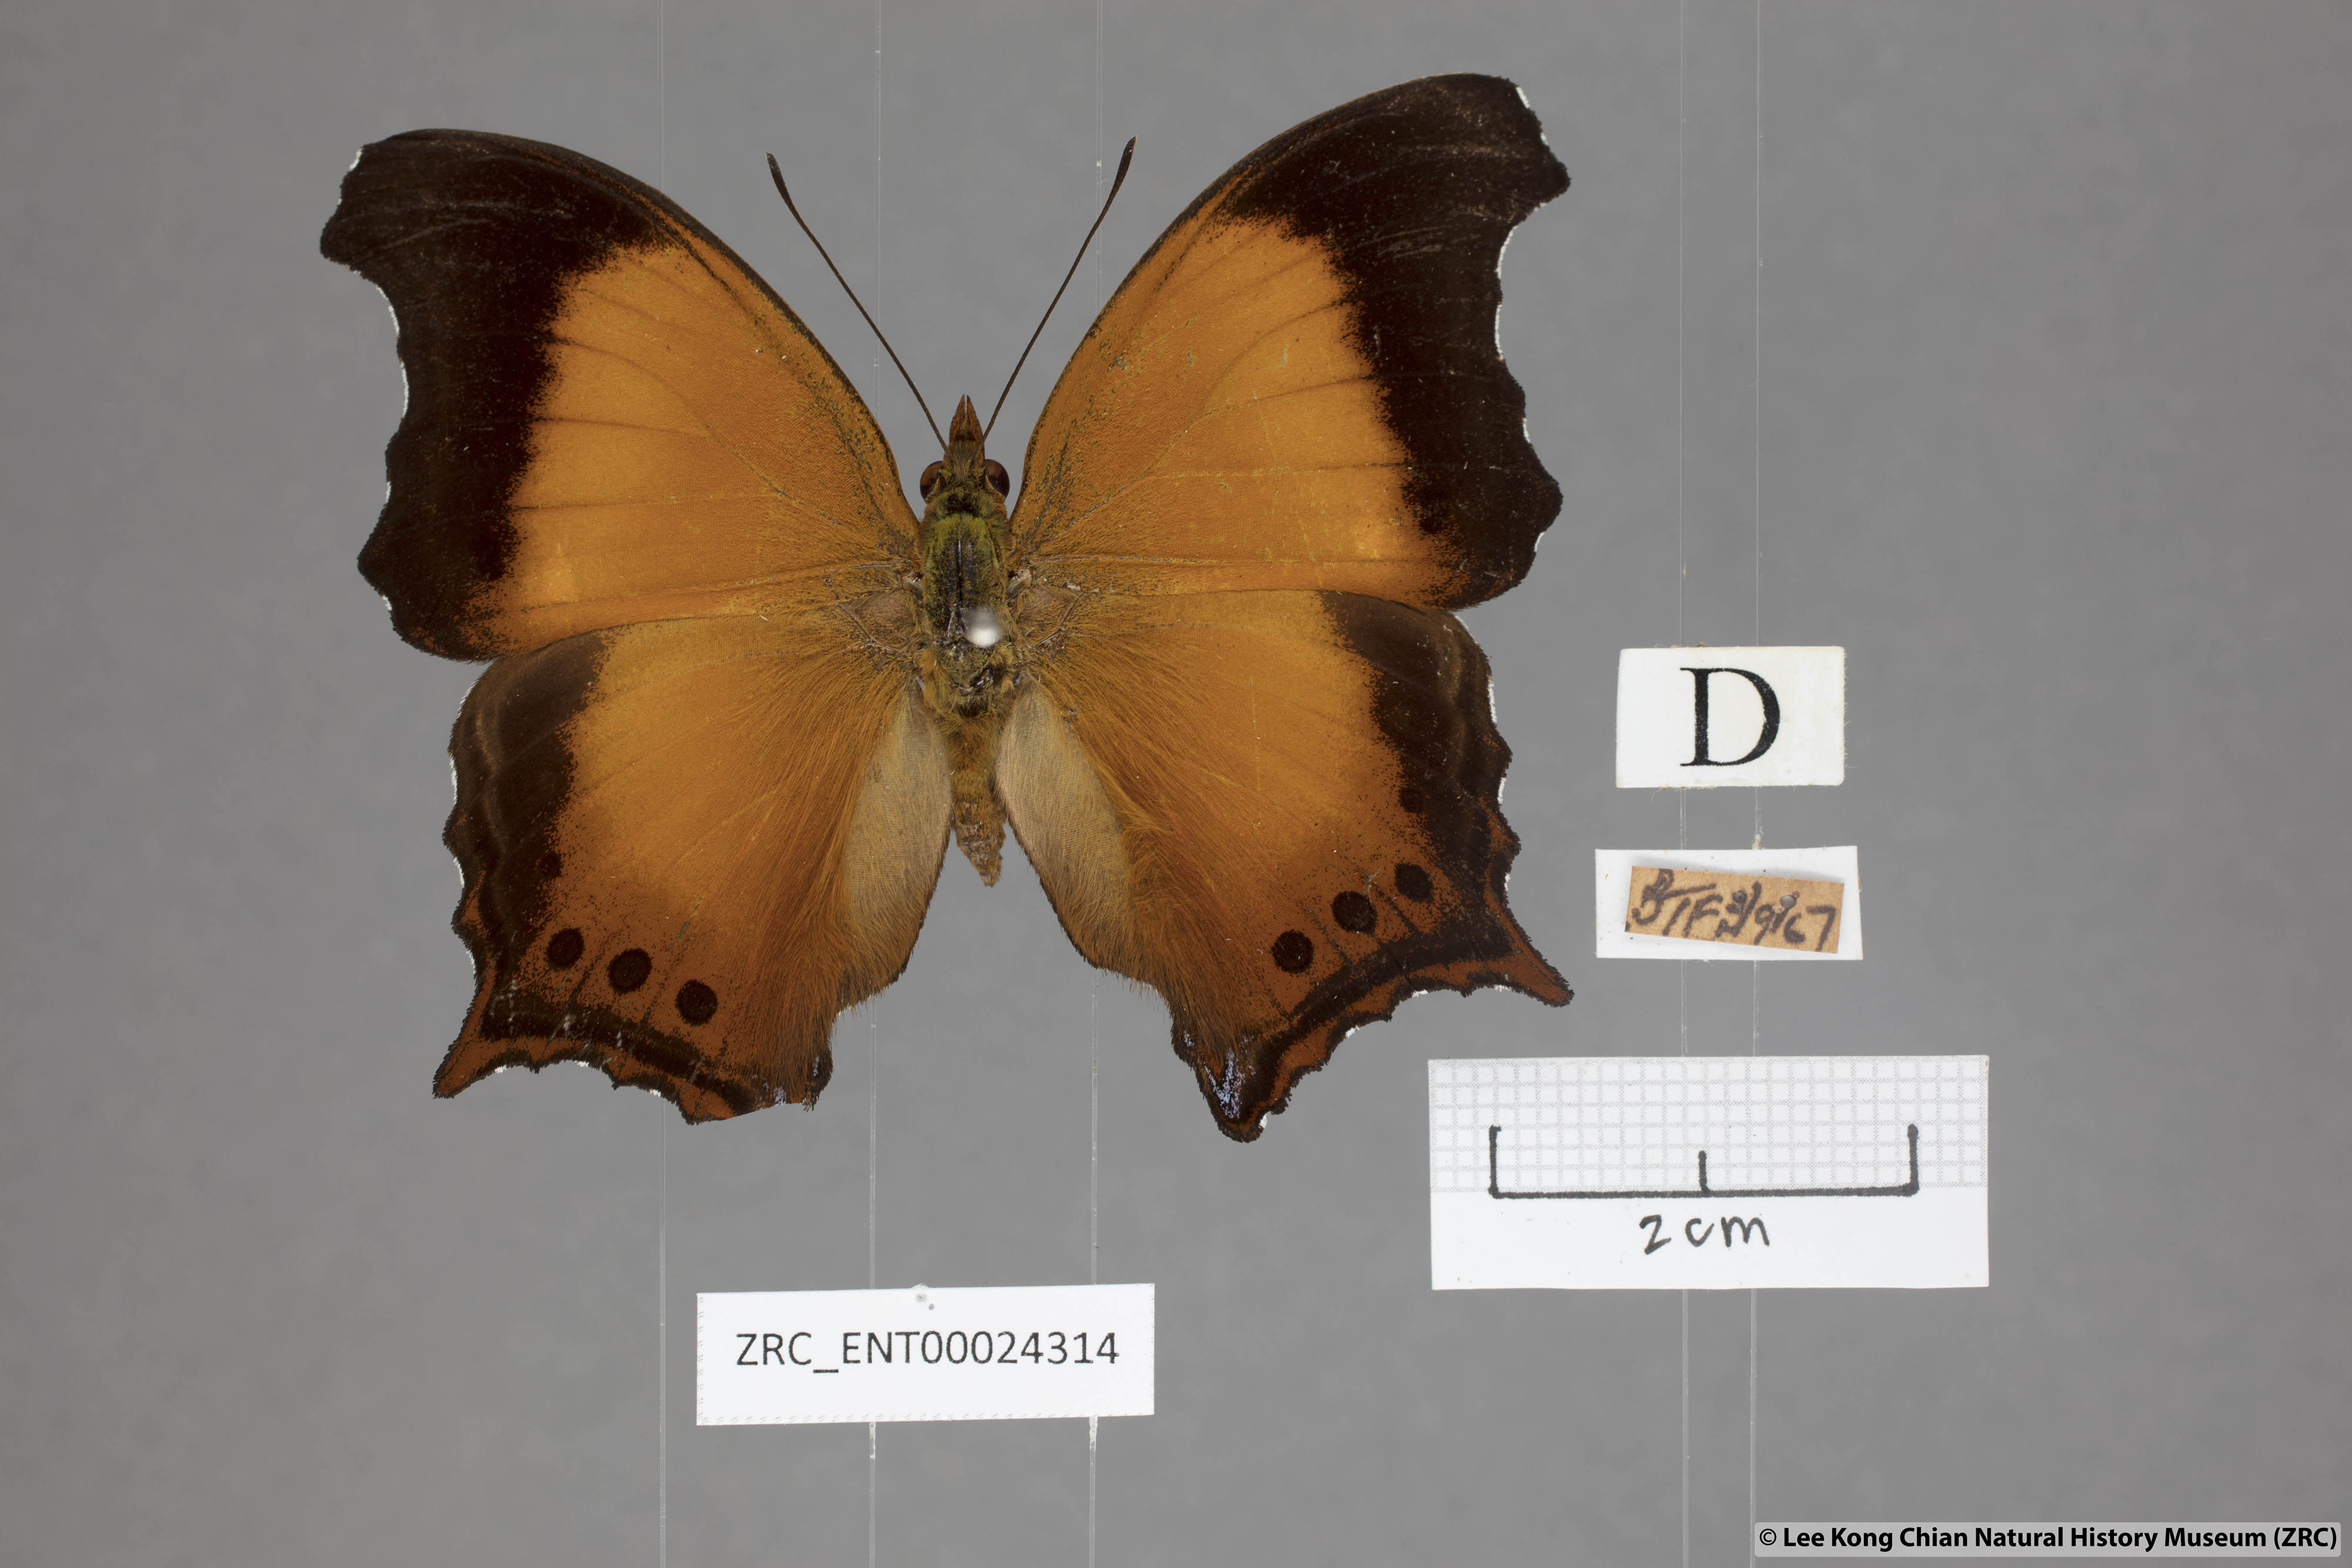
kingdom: Animalia
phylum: Arthropoda
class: Insecta
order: Lepidoptera
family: Nymphalidae
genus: Rhinopalpa
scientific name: Rhinopalpa polynice
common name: Wizard
